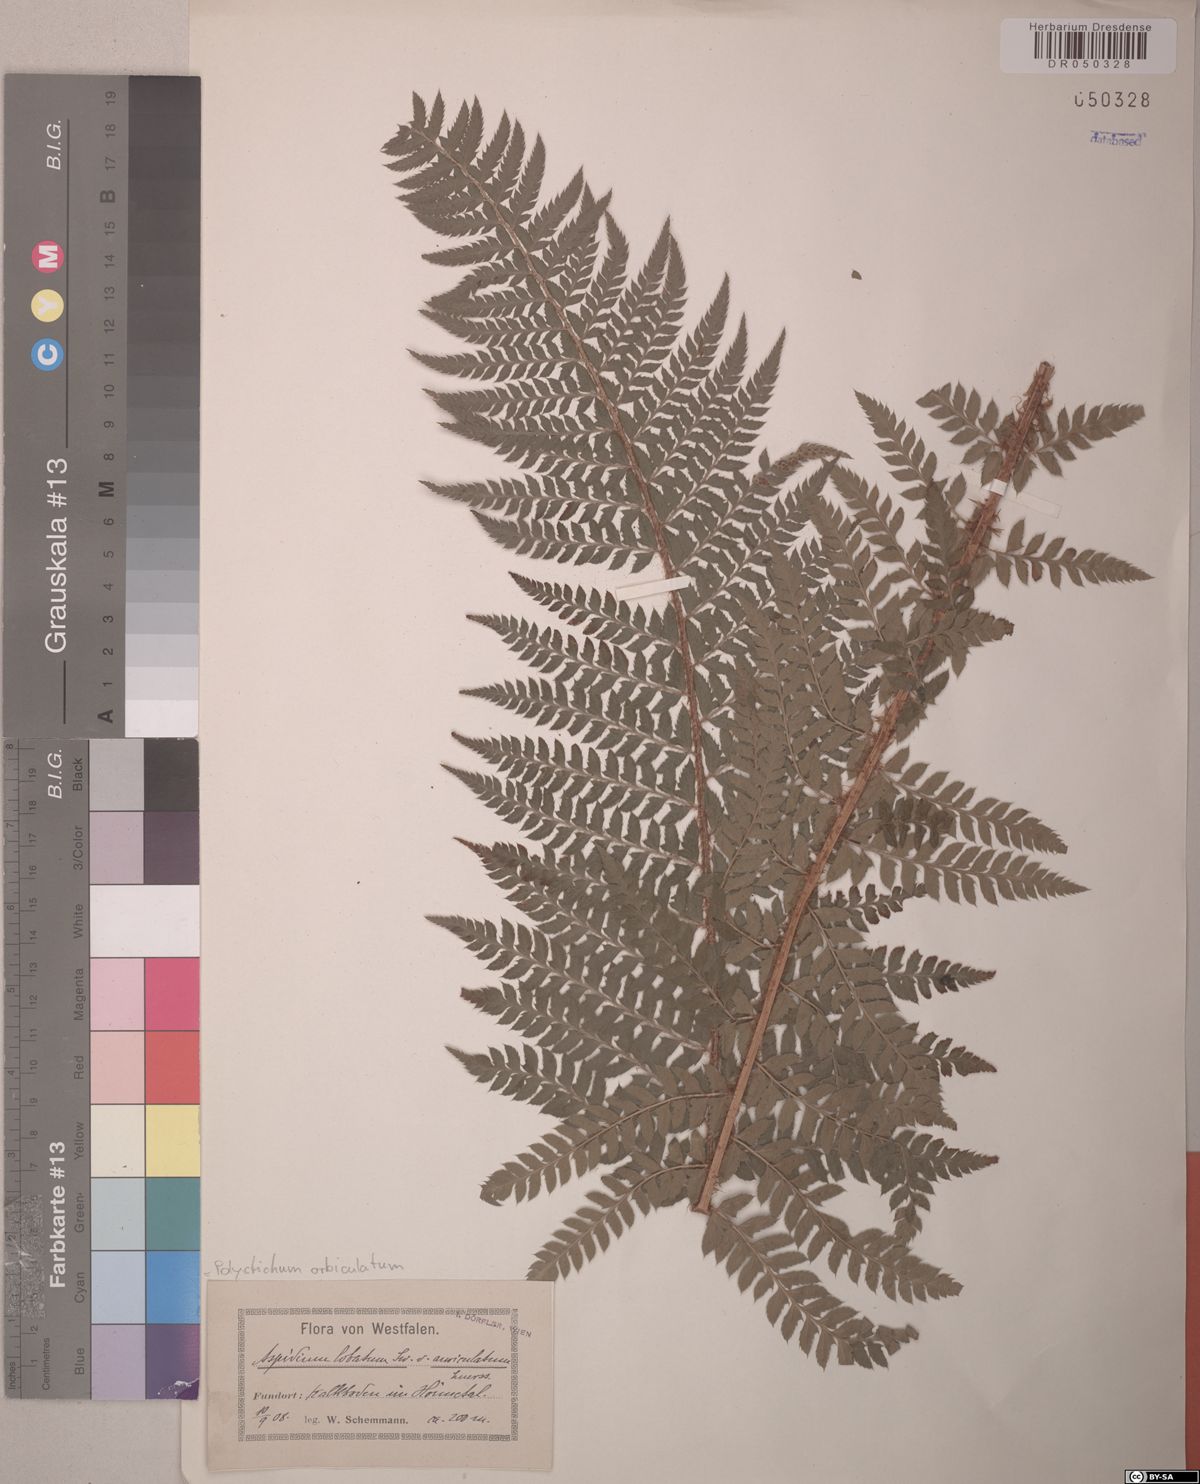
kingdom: Plantae
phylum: Tracheophyta
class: Polypodiopsida
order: Polypodiales
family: Dryopteridaceae
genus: Polystichum
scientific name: Polystichum aculeatum
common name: Hard shield-fern
